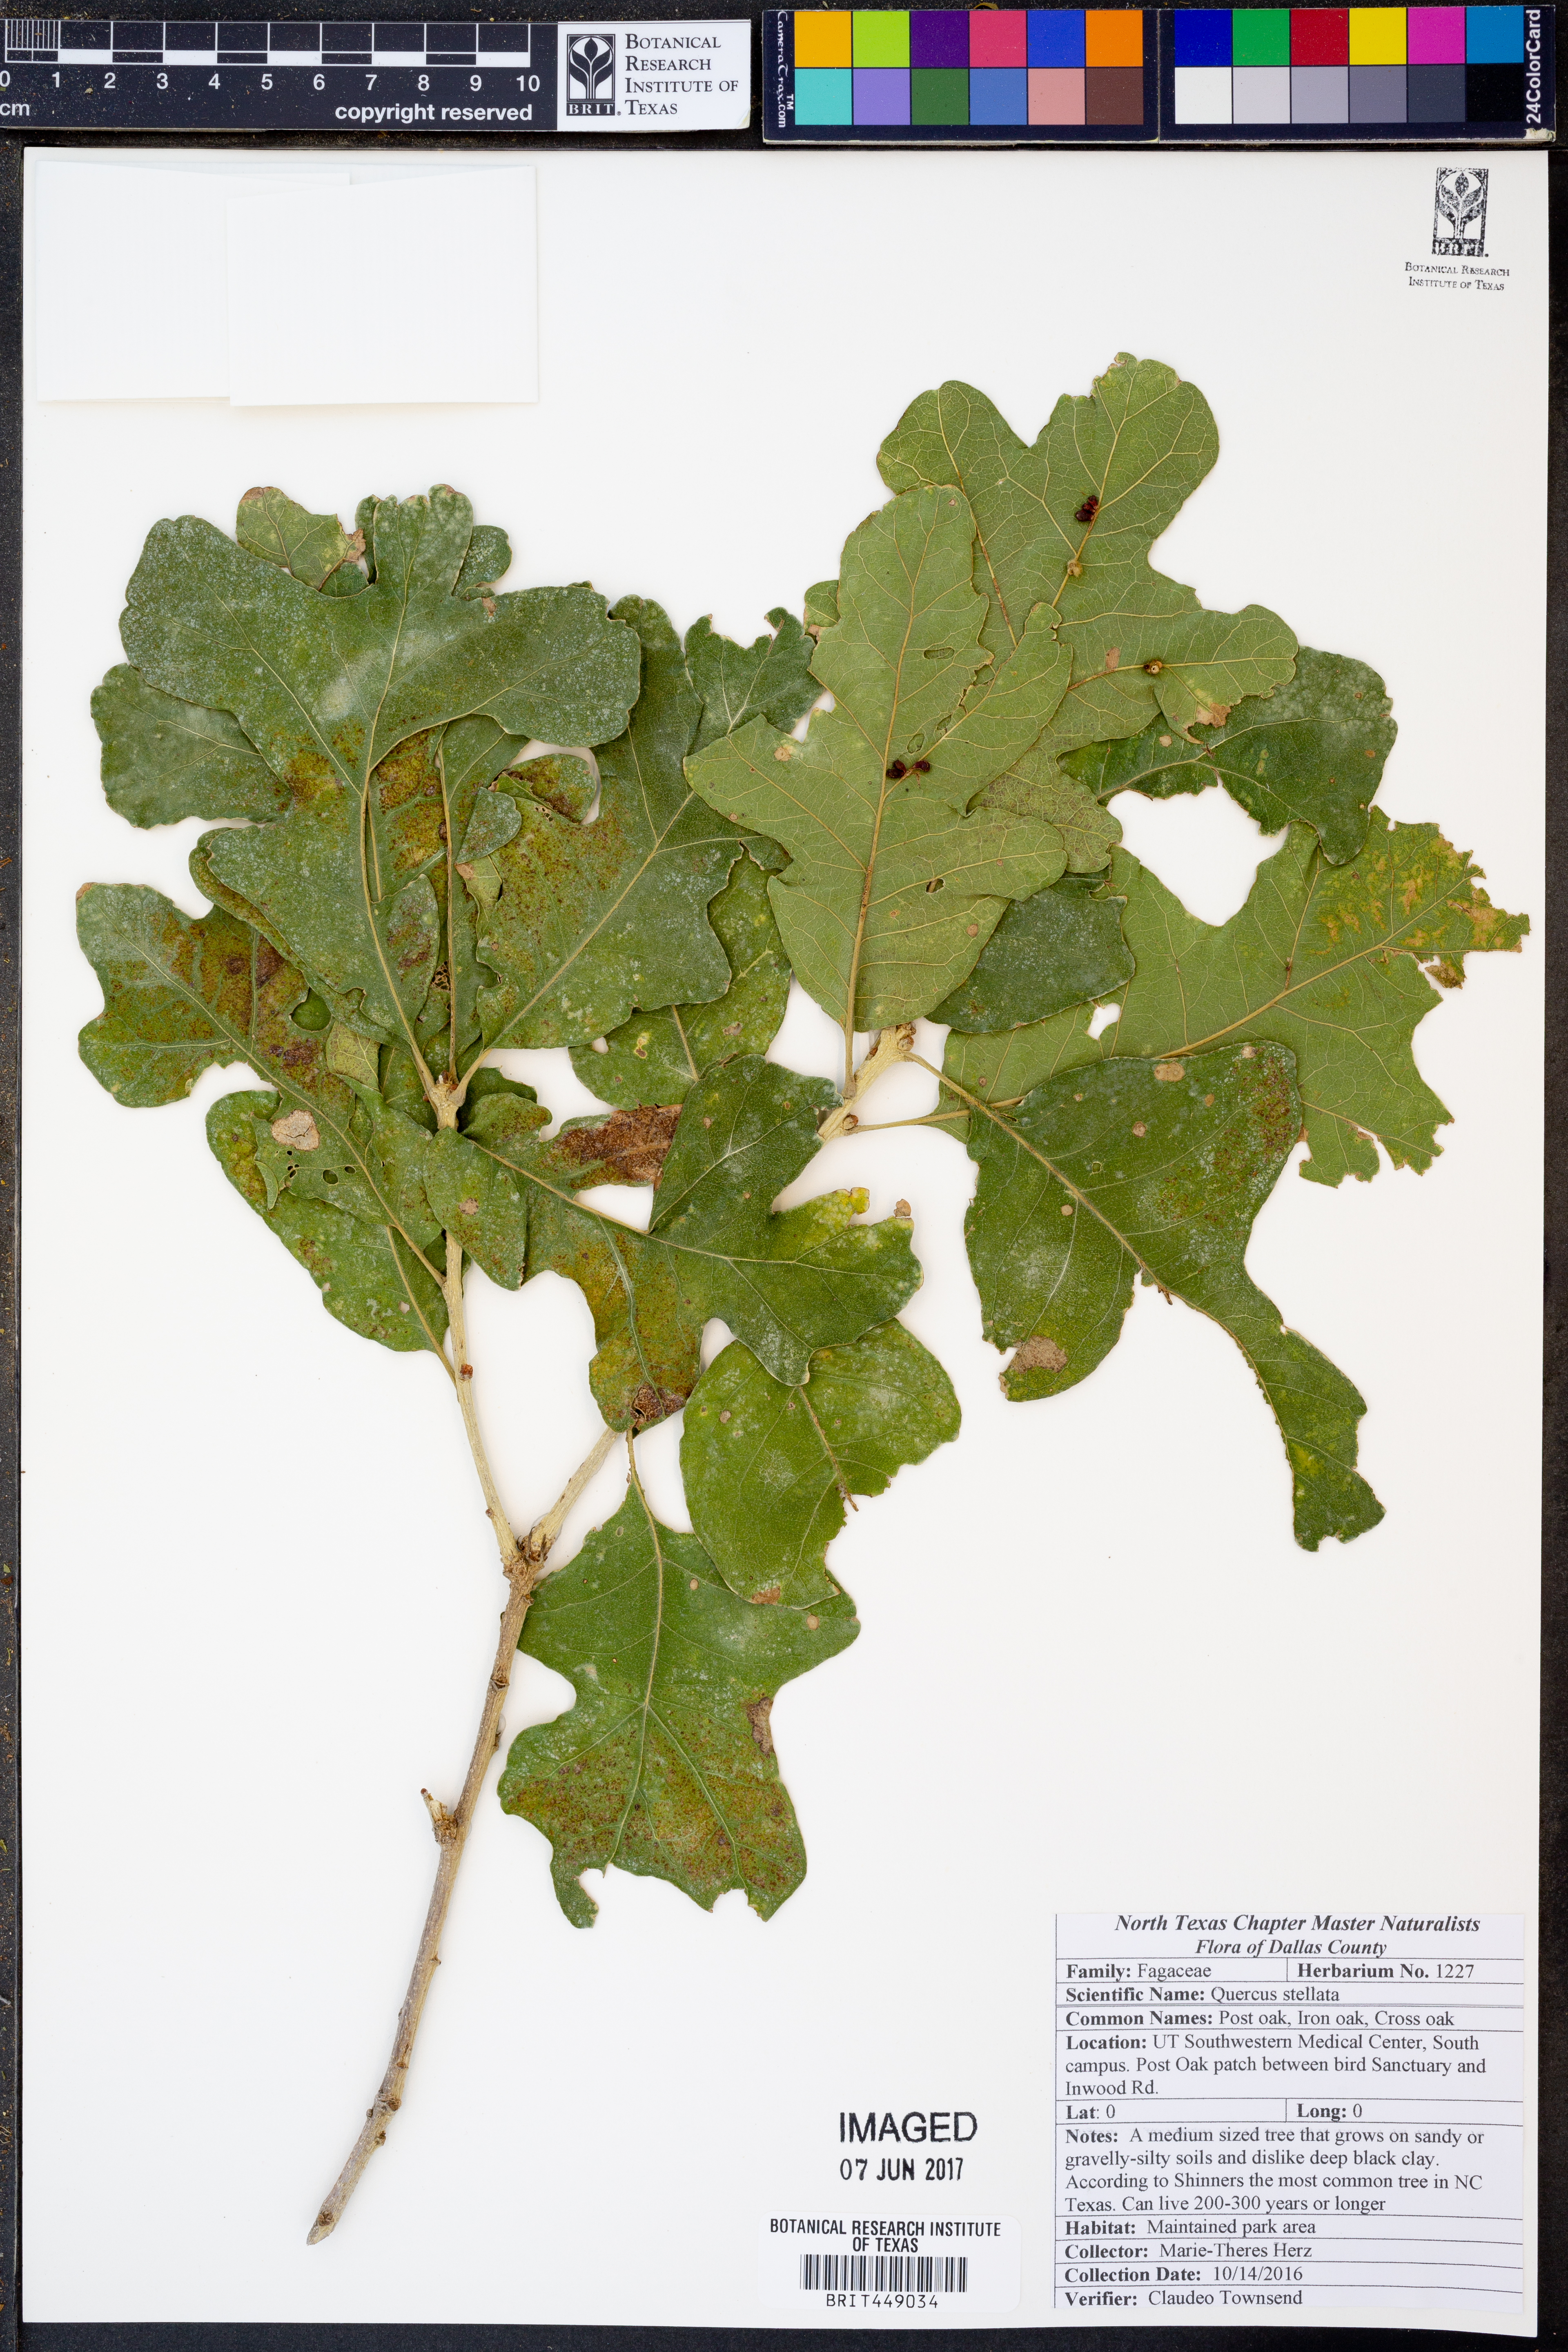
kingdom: Plantae
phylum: Tracheophyta
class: Magnoliopsida
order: Fagales
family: Fagaceae
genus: Quercus
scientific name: Quercus stellata
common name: Post oak
